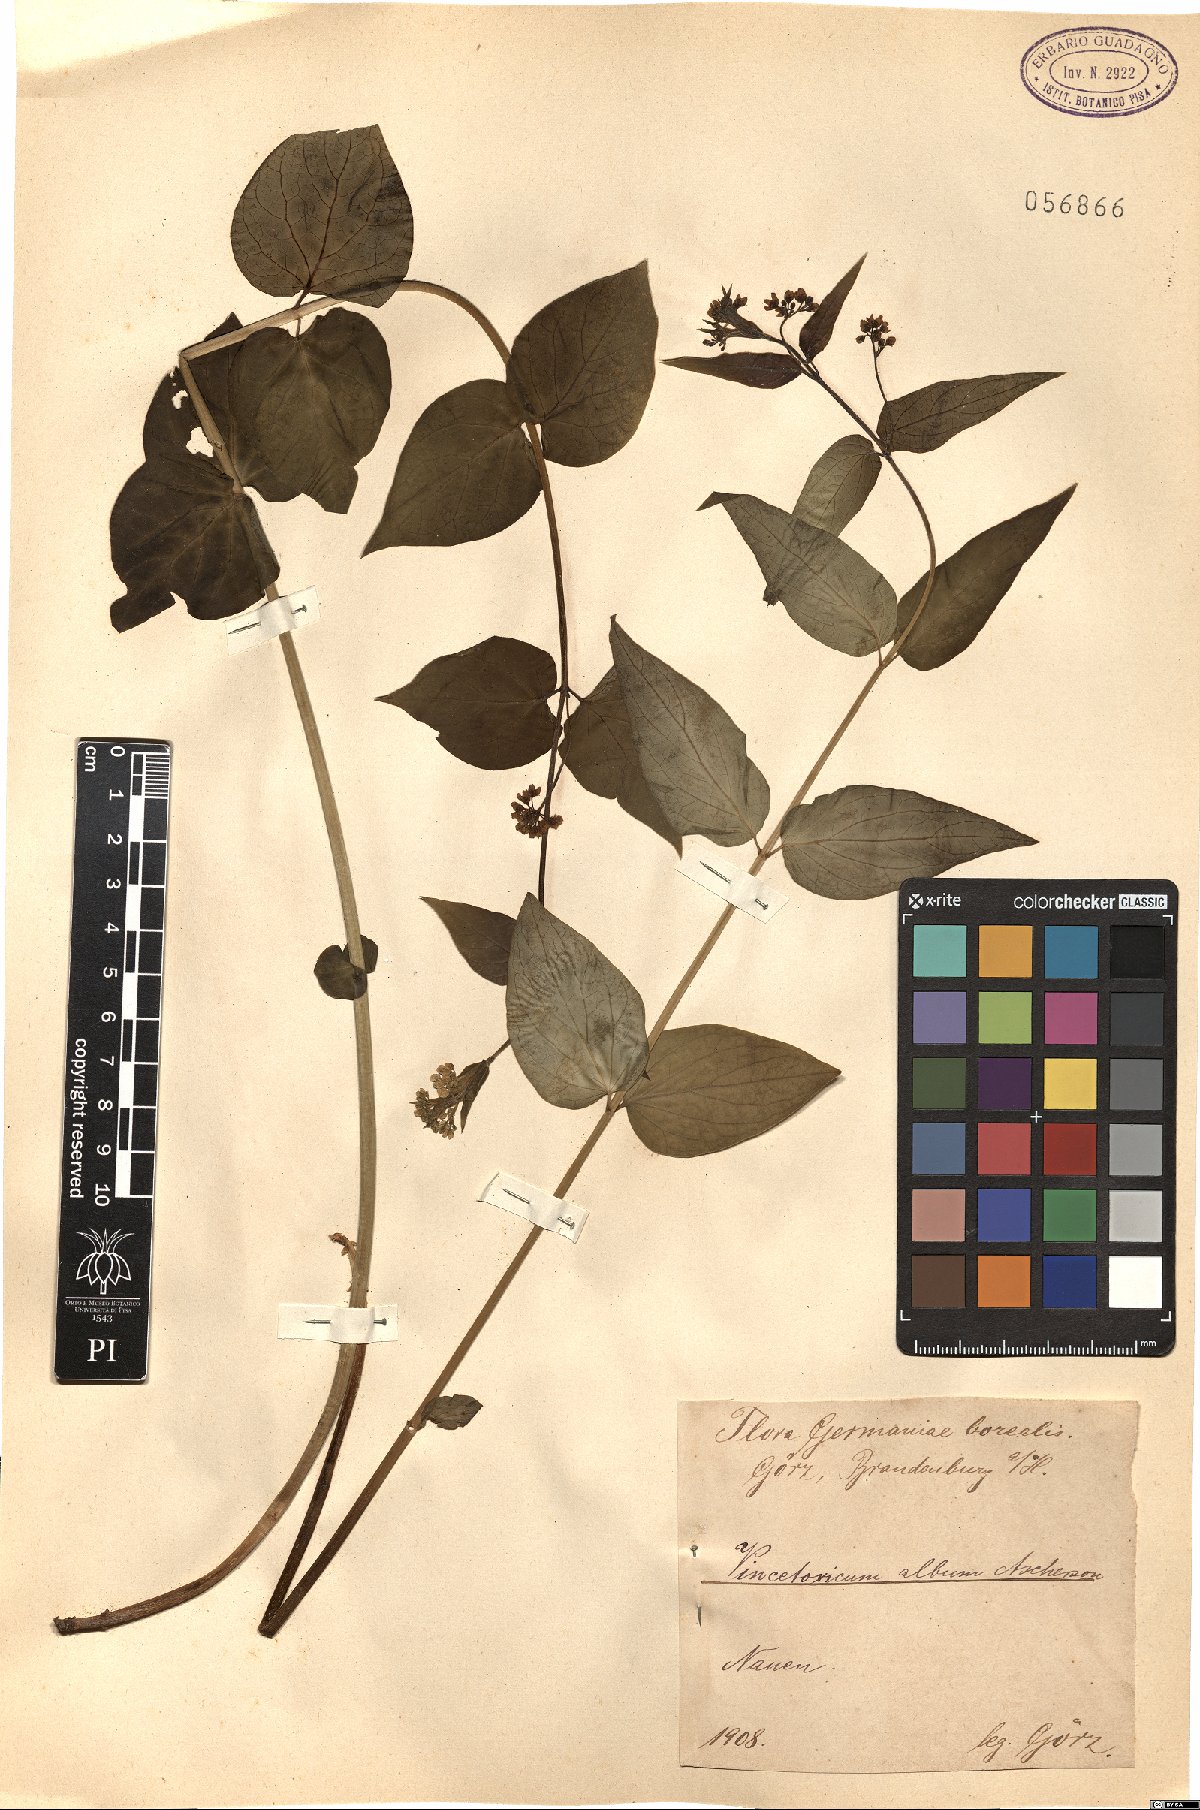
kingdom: Plantae
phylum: Tracheophyta
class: Magnoliopsida
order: Gentianales
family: Apocynaceae
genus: Vincetoxicum
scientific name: Vincetoxicum hirundinaria
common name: White swallowwort
